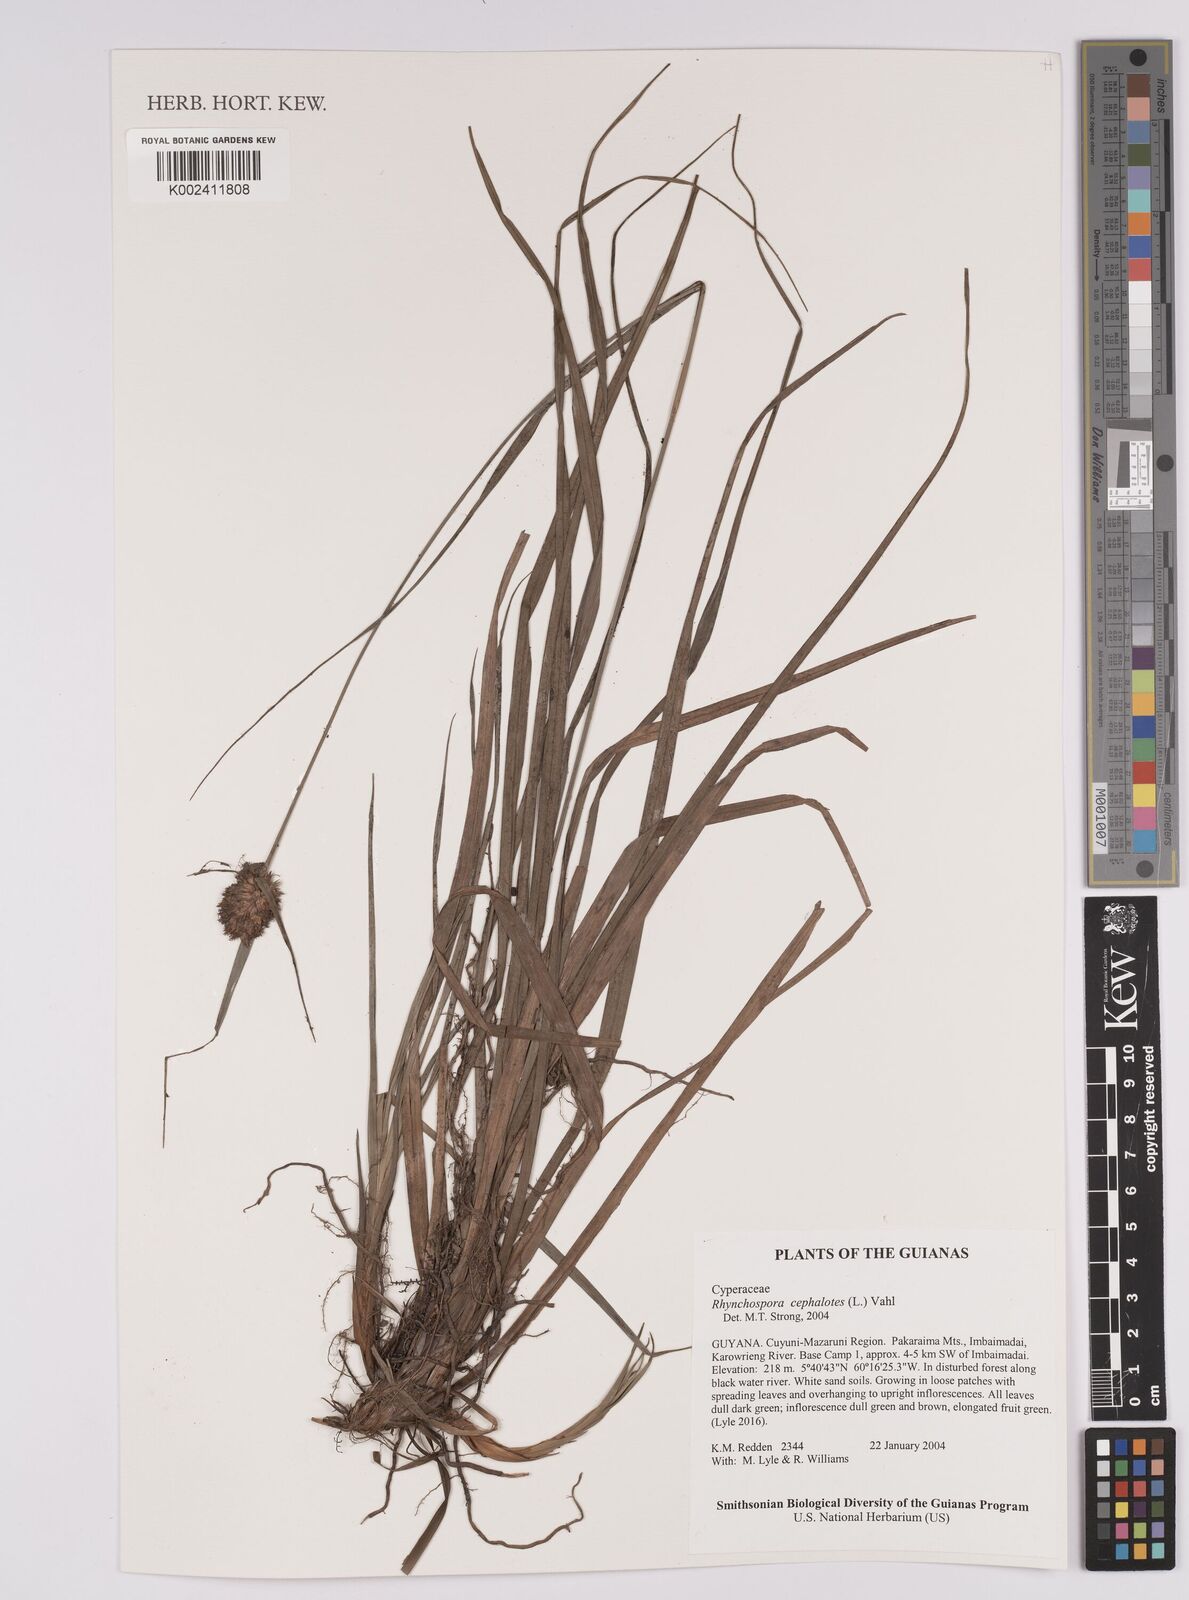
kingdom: Plantae
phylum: Tracheophyta
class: Liliopsida
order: Poales
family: Cyperaceae
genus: Rhynchospora
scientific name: Rhynchospora cephalotes
